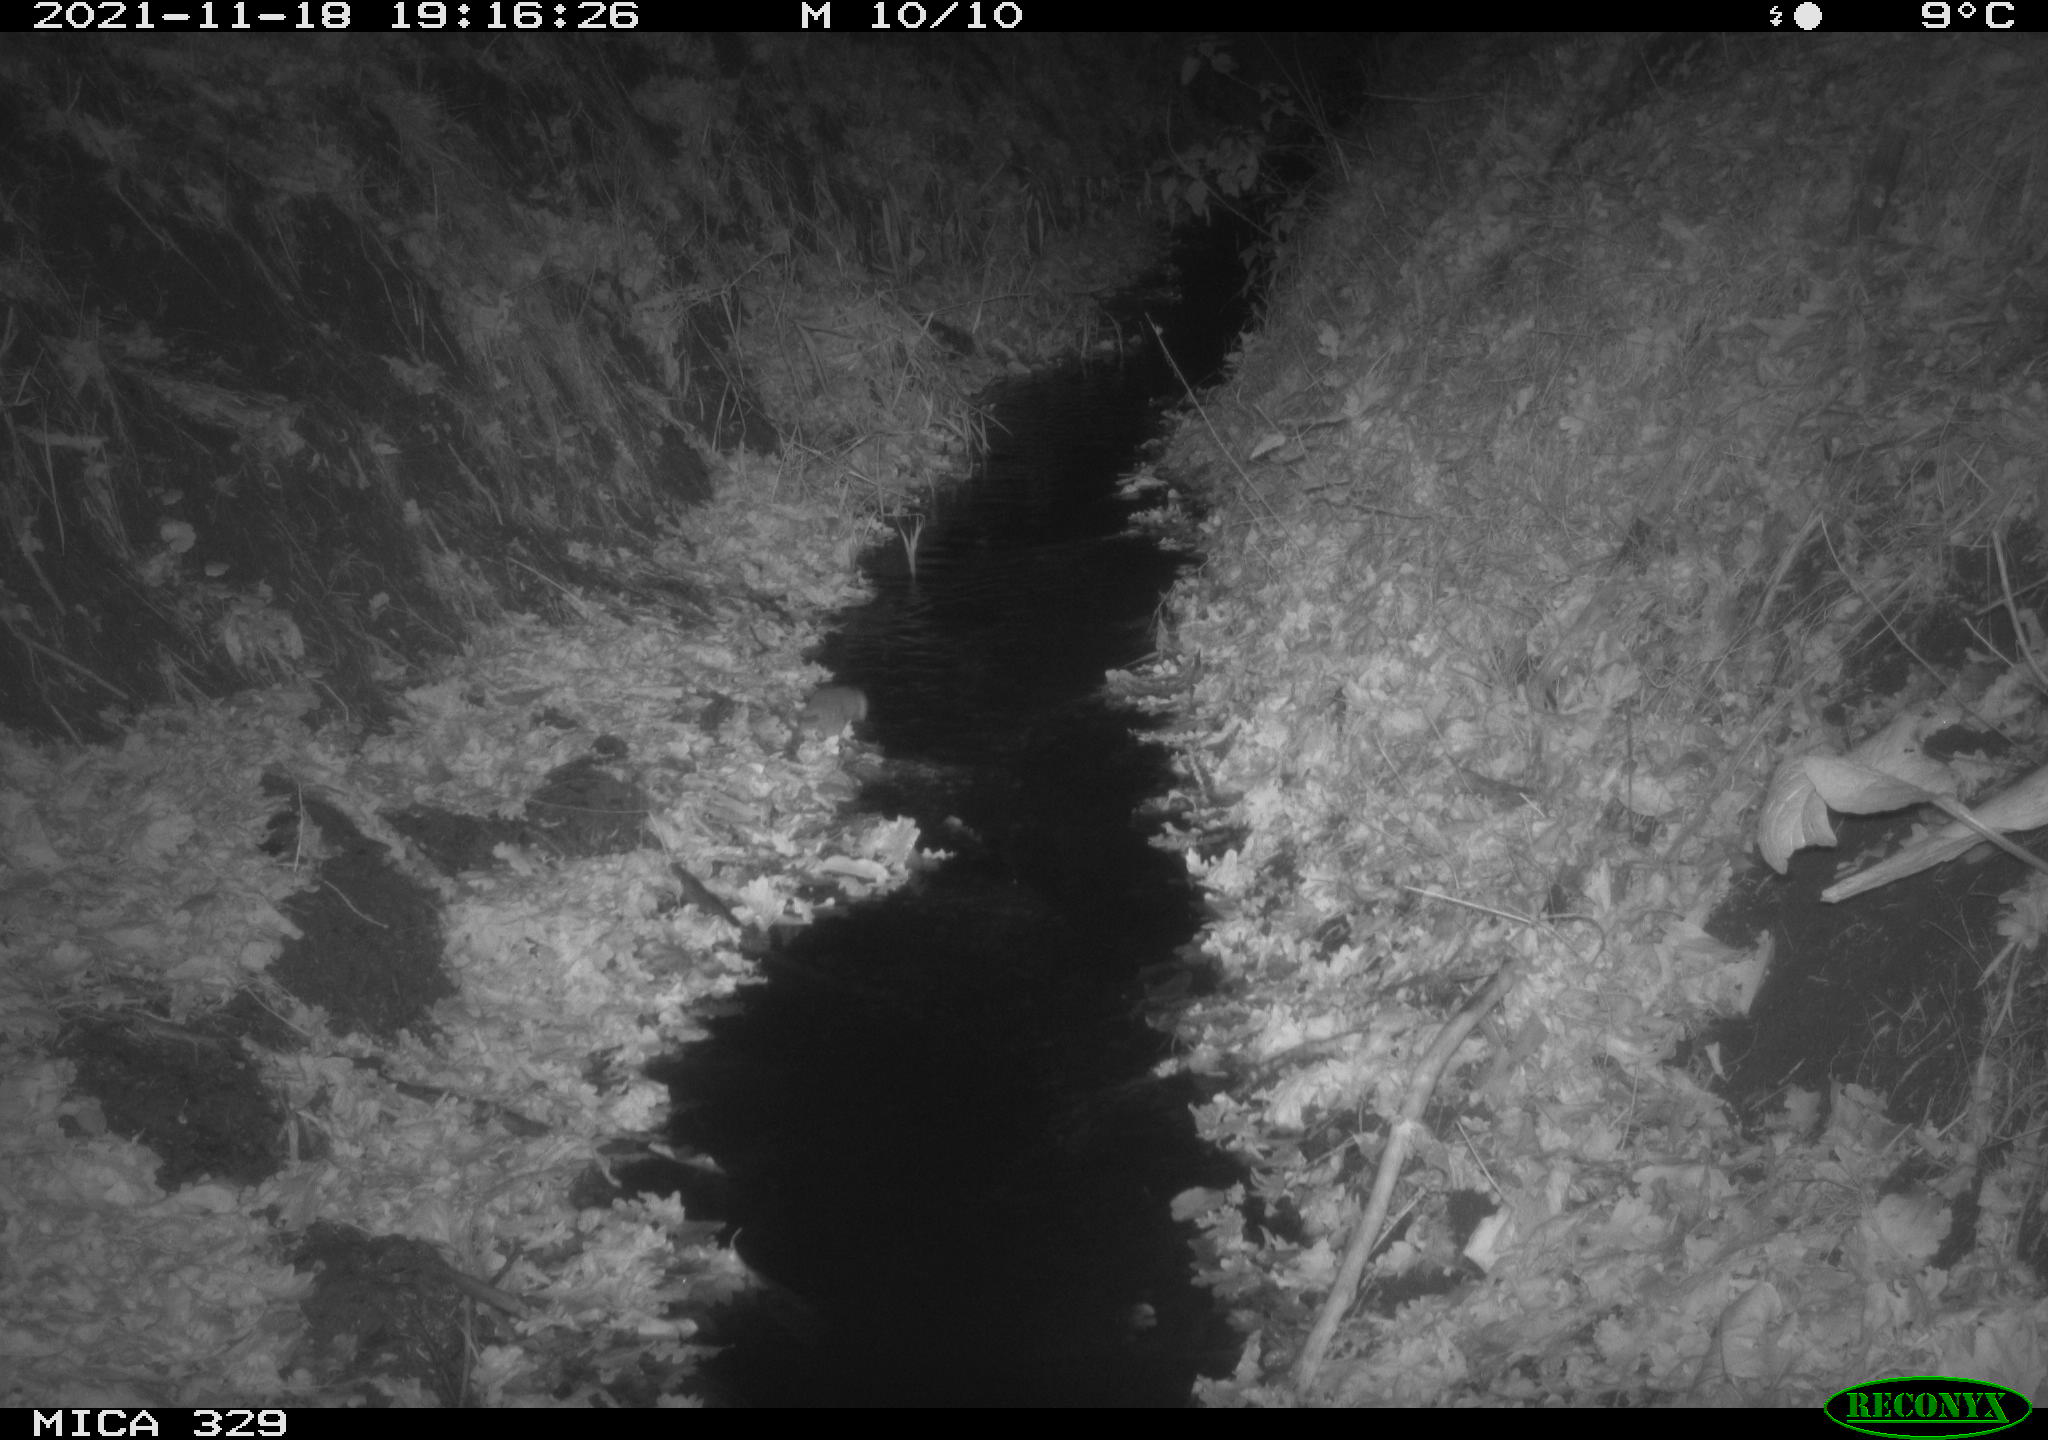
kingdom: Animalia
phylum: Chordata
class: Mammalia
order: Rodentia
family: Muridae
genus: Rattus
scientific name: Rattus norvegicus
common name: Brown rat
